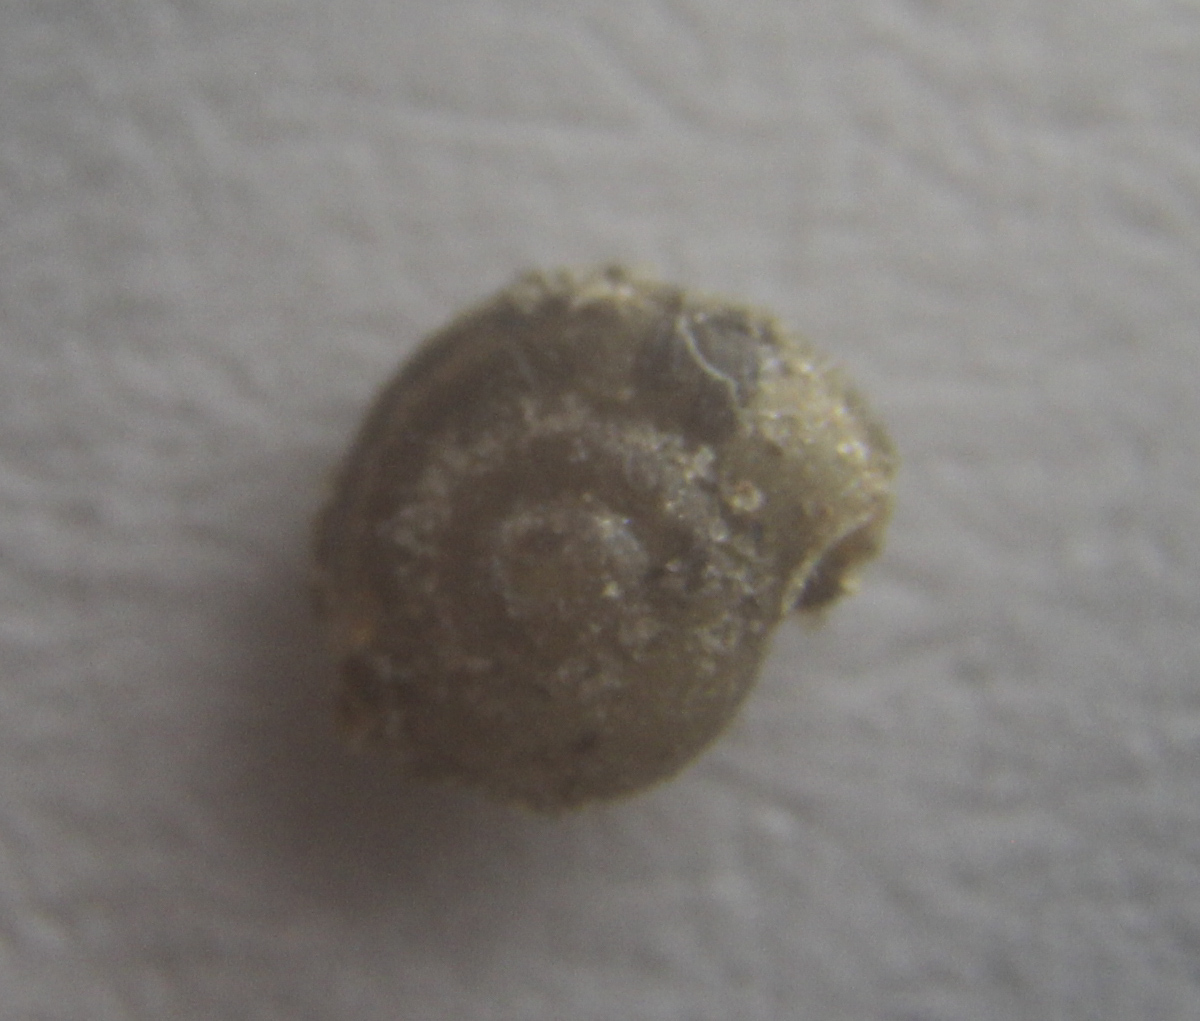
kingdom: Animalia
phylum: Mollusca
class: Gastropoda
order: Stylommatophora
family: Punctidae
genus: Punctum
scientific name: Punctum pygmaeum
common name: Dwarf snail
